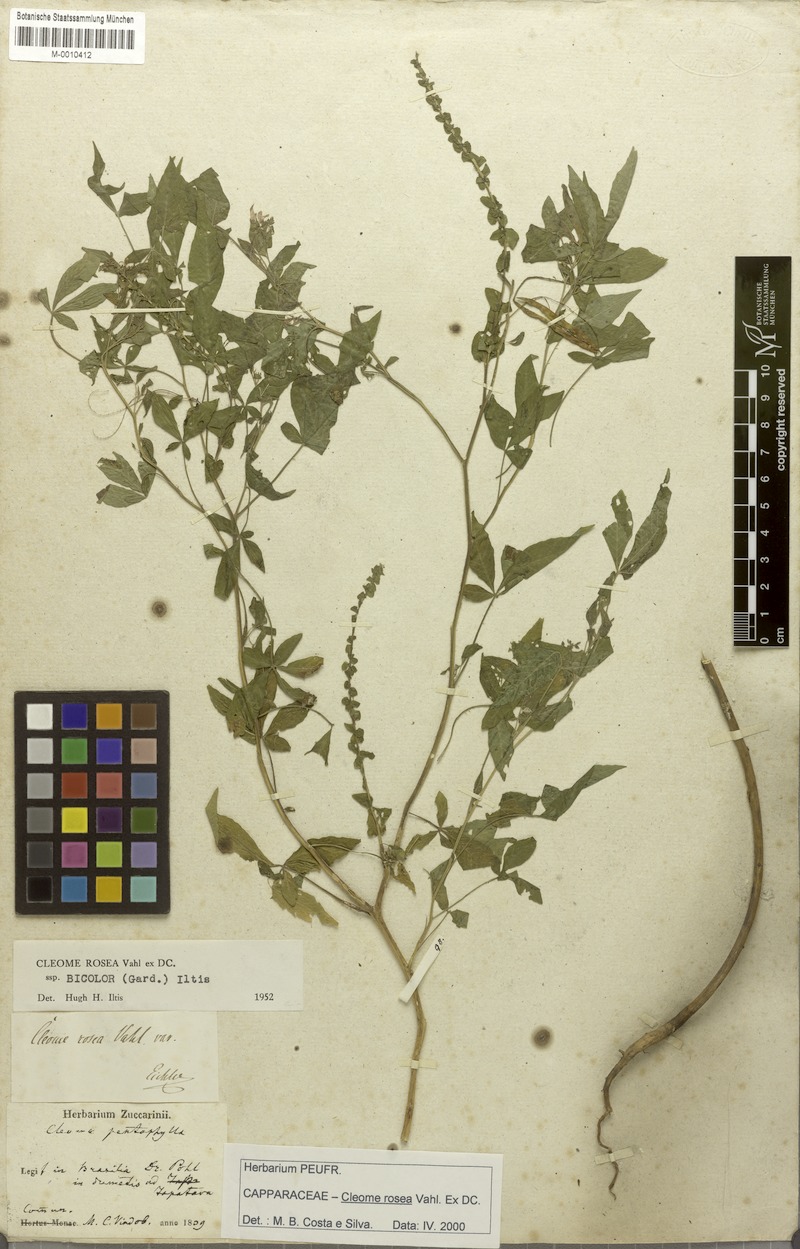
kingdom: Plantae
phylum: Tracheophyta
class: Magnoliopsida
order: Brassicales
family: Cleomaceae
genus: Tarenaya
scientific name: Tarenaya rosea
